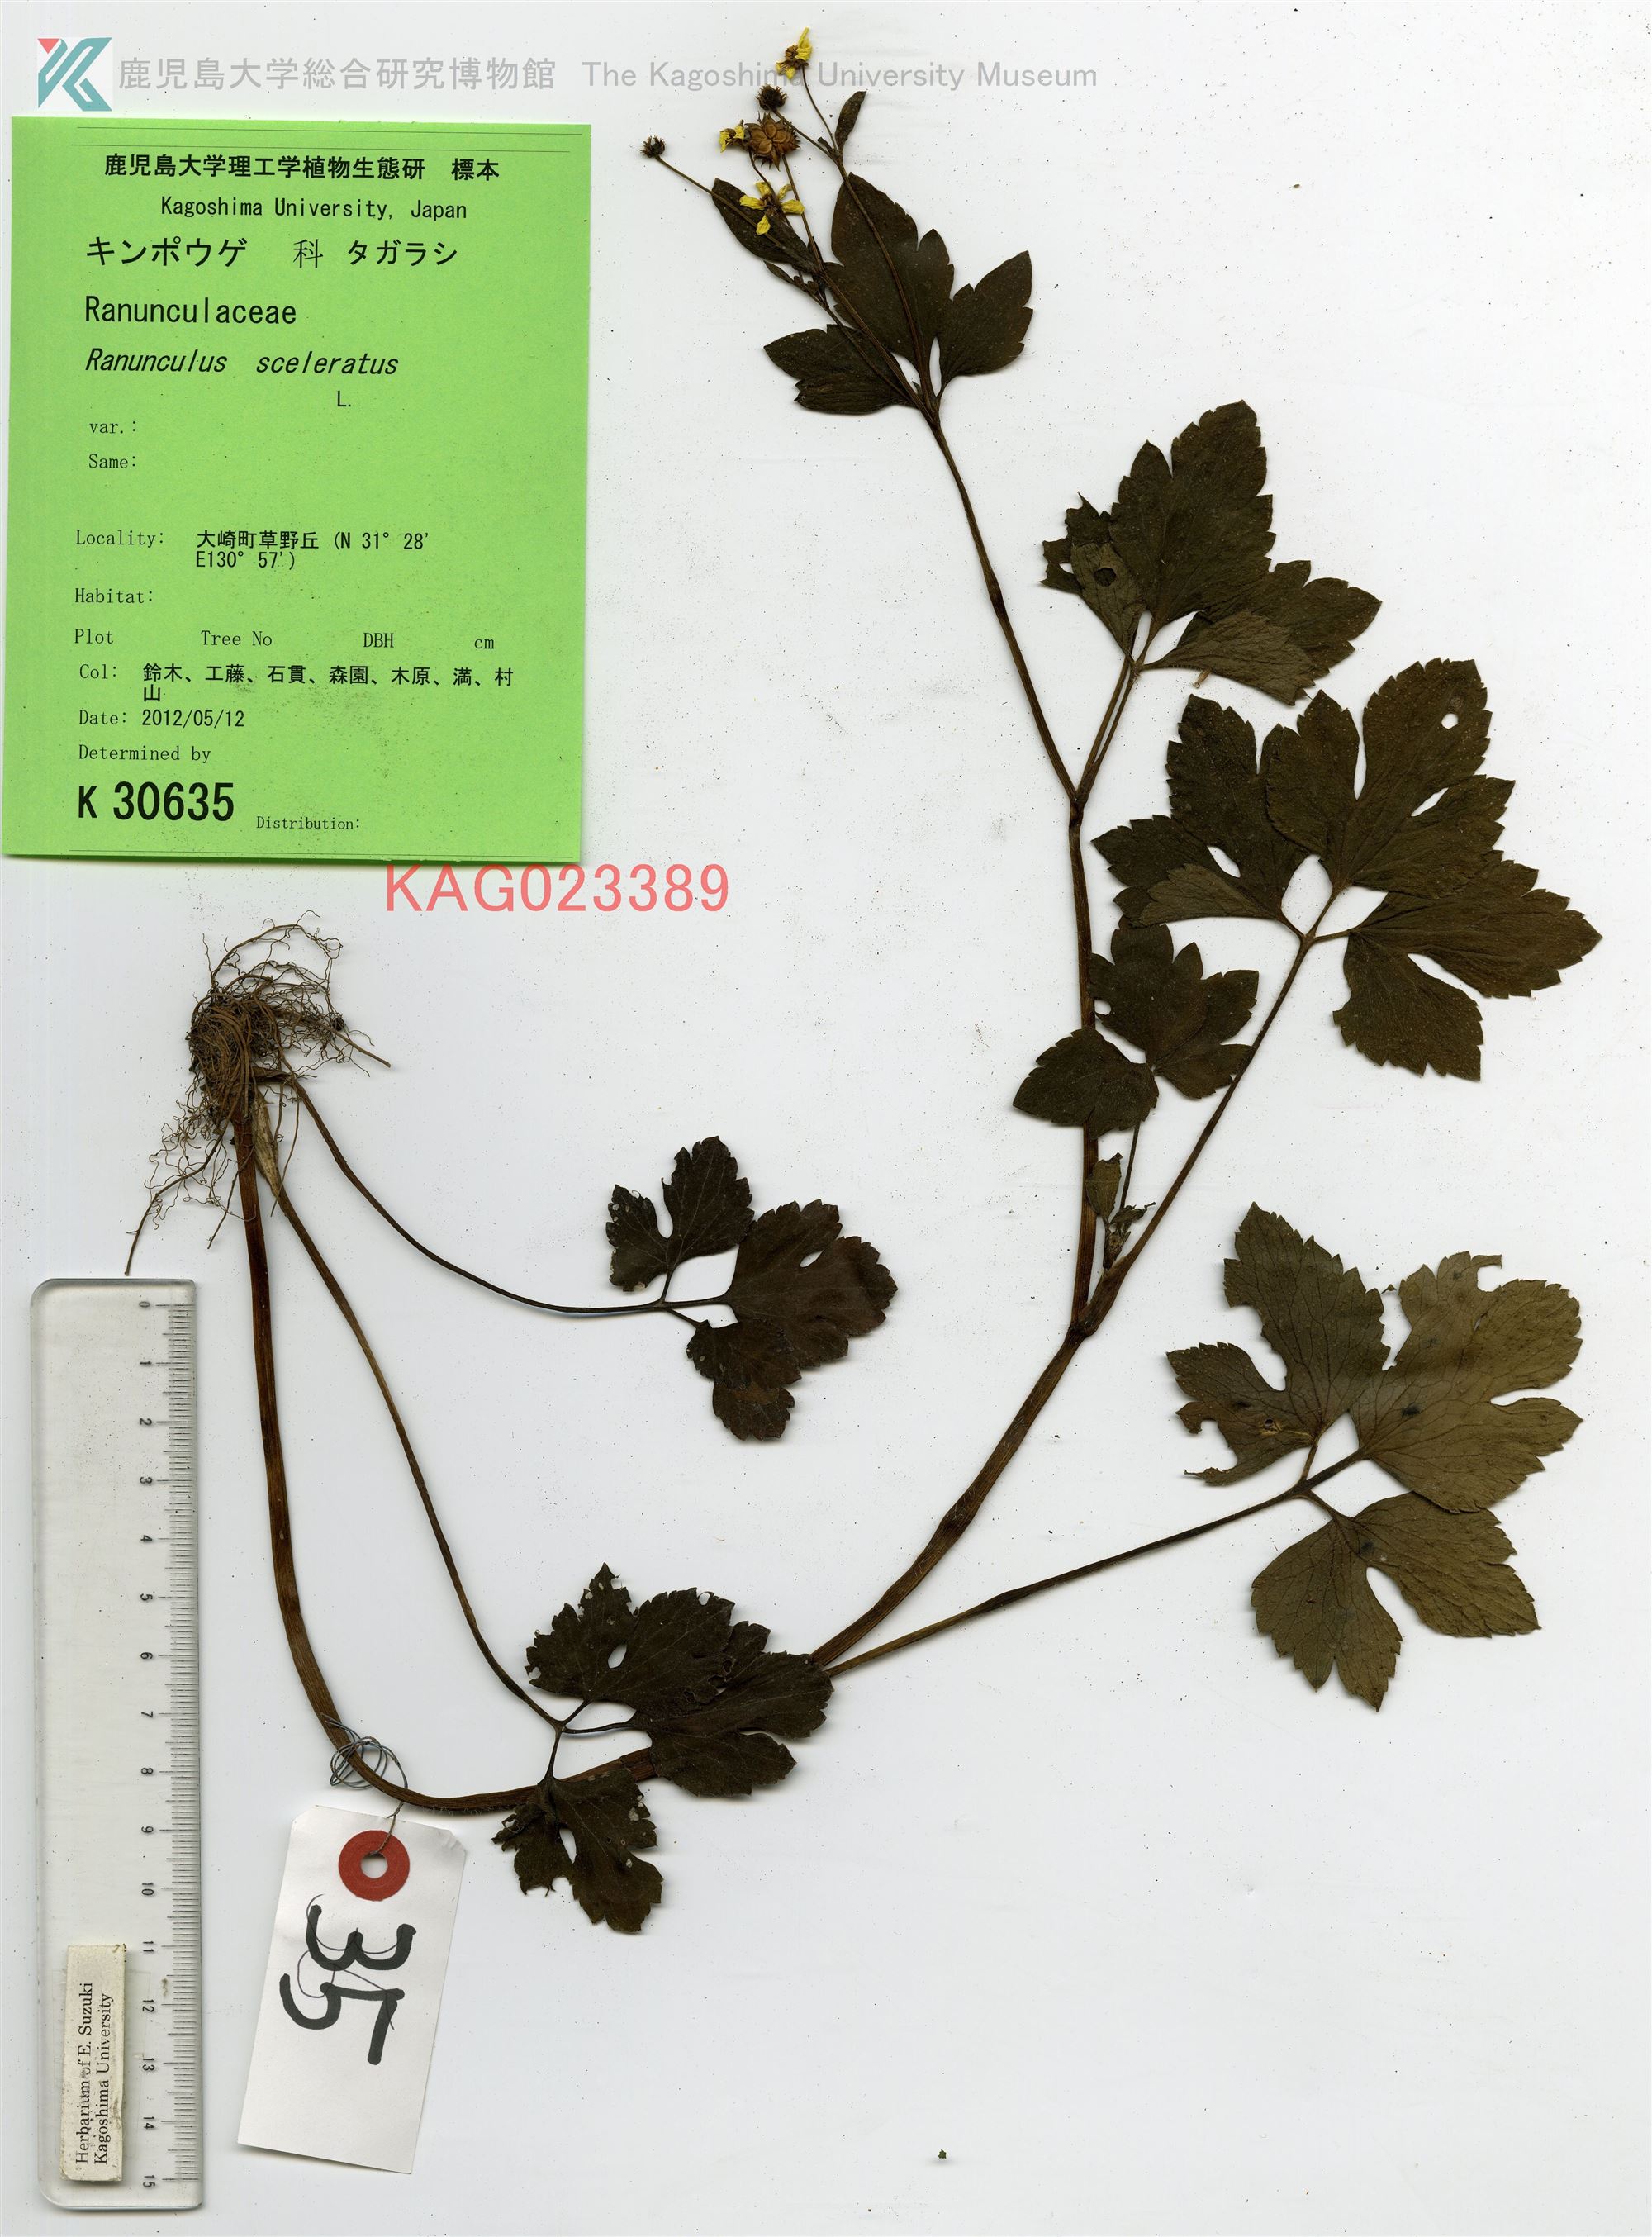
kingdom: Plantae
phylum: Tracheophyta
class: Magnoliopsida
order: Ranunculales
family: Ranunculaceae
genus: Ranunculus
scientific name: Ranunculus silerifolius
